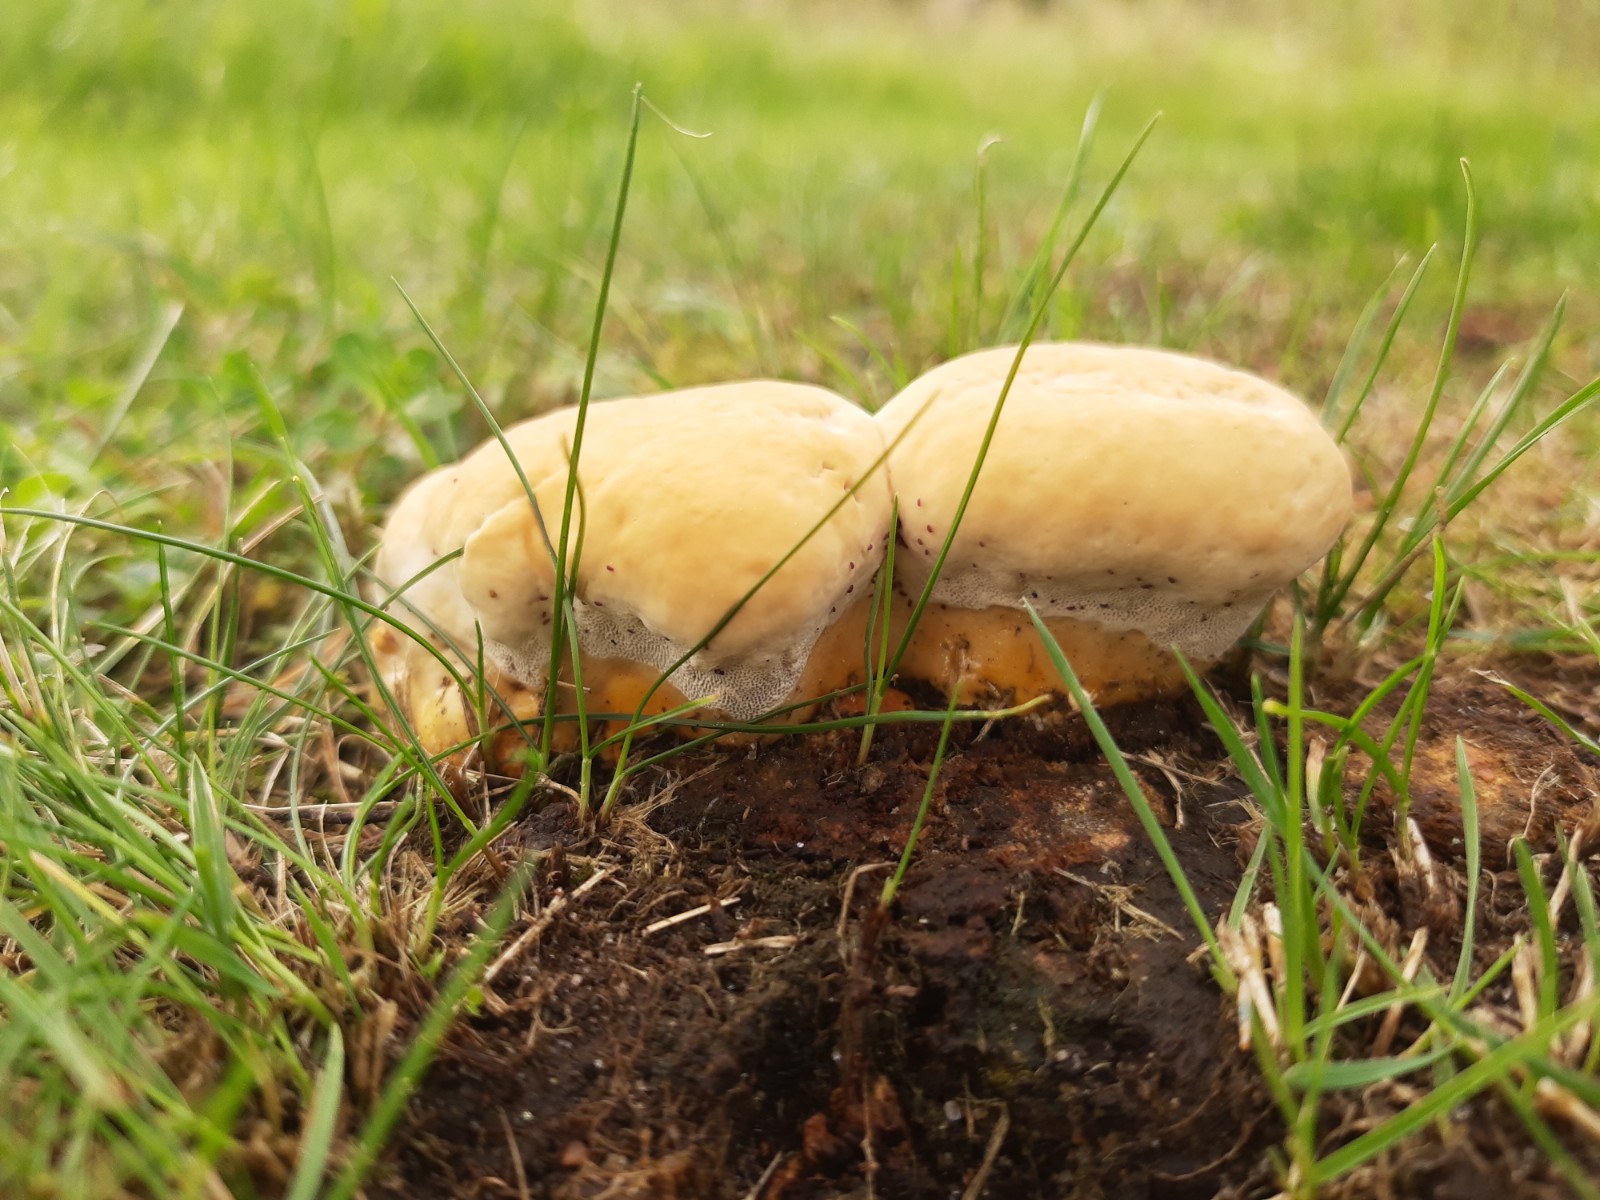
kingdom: Fungi
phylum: Basidiomycota
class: Agaricomycetes
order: Polyporales
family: Polyporaceae
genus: Ganoderma
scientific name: Ganoderma lucidum
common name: skinnende lakporesvamp
